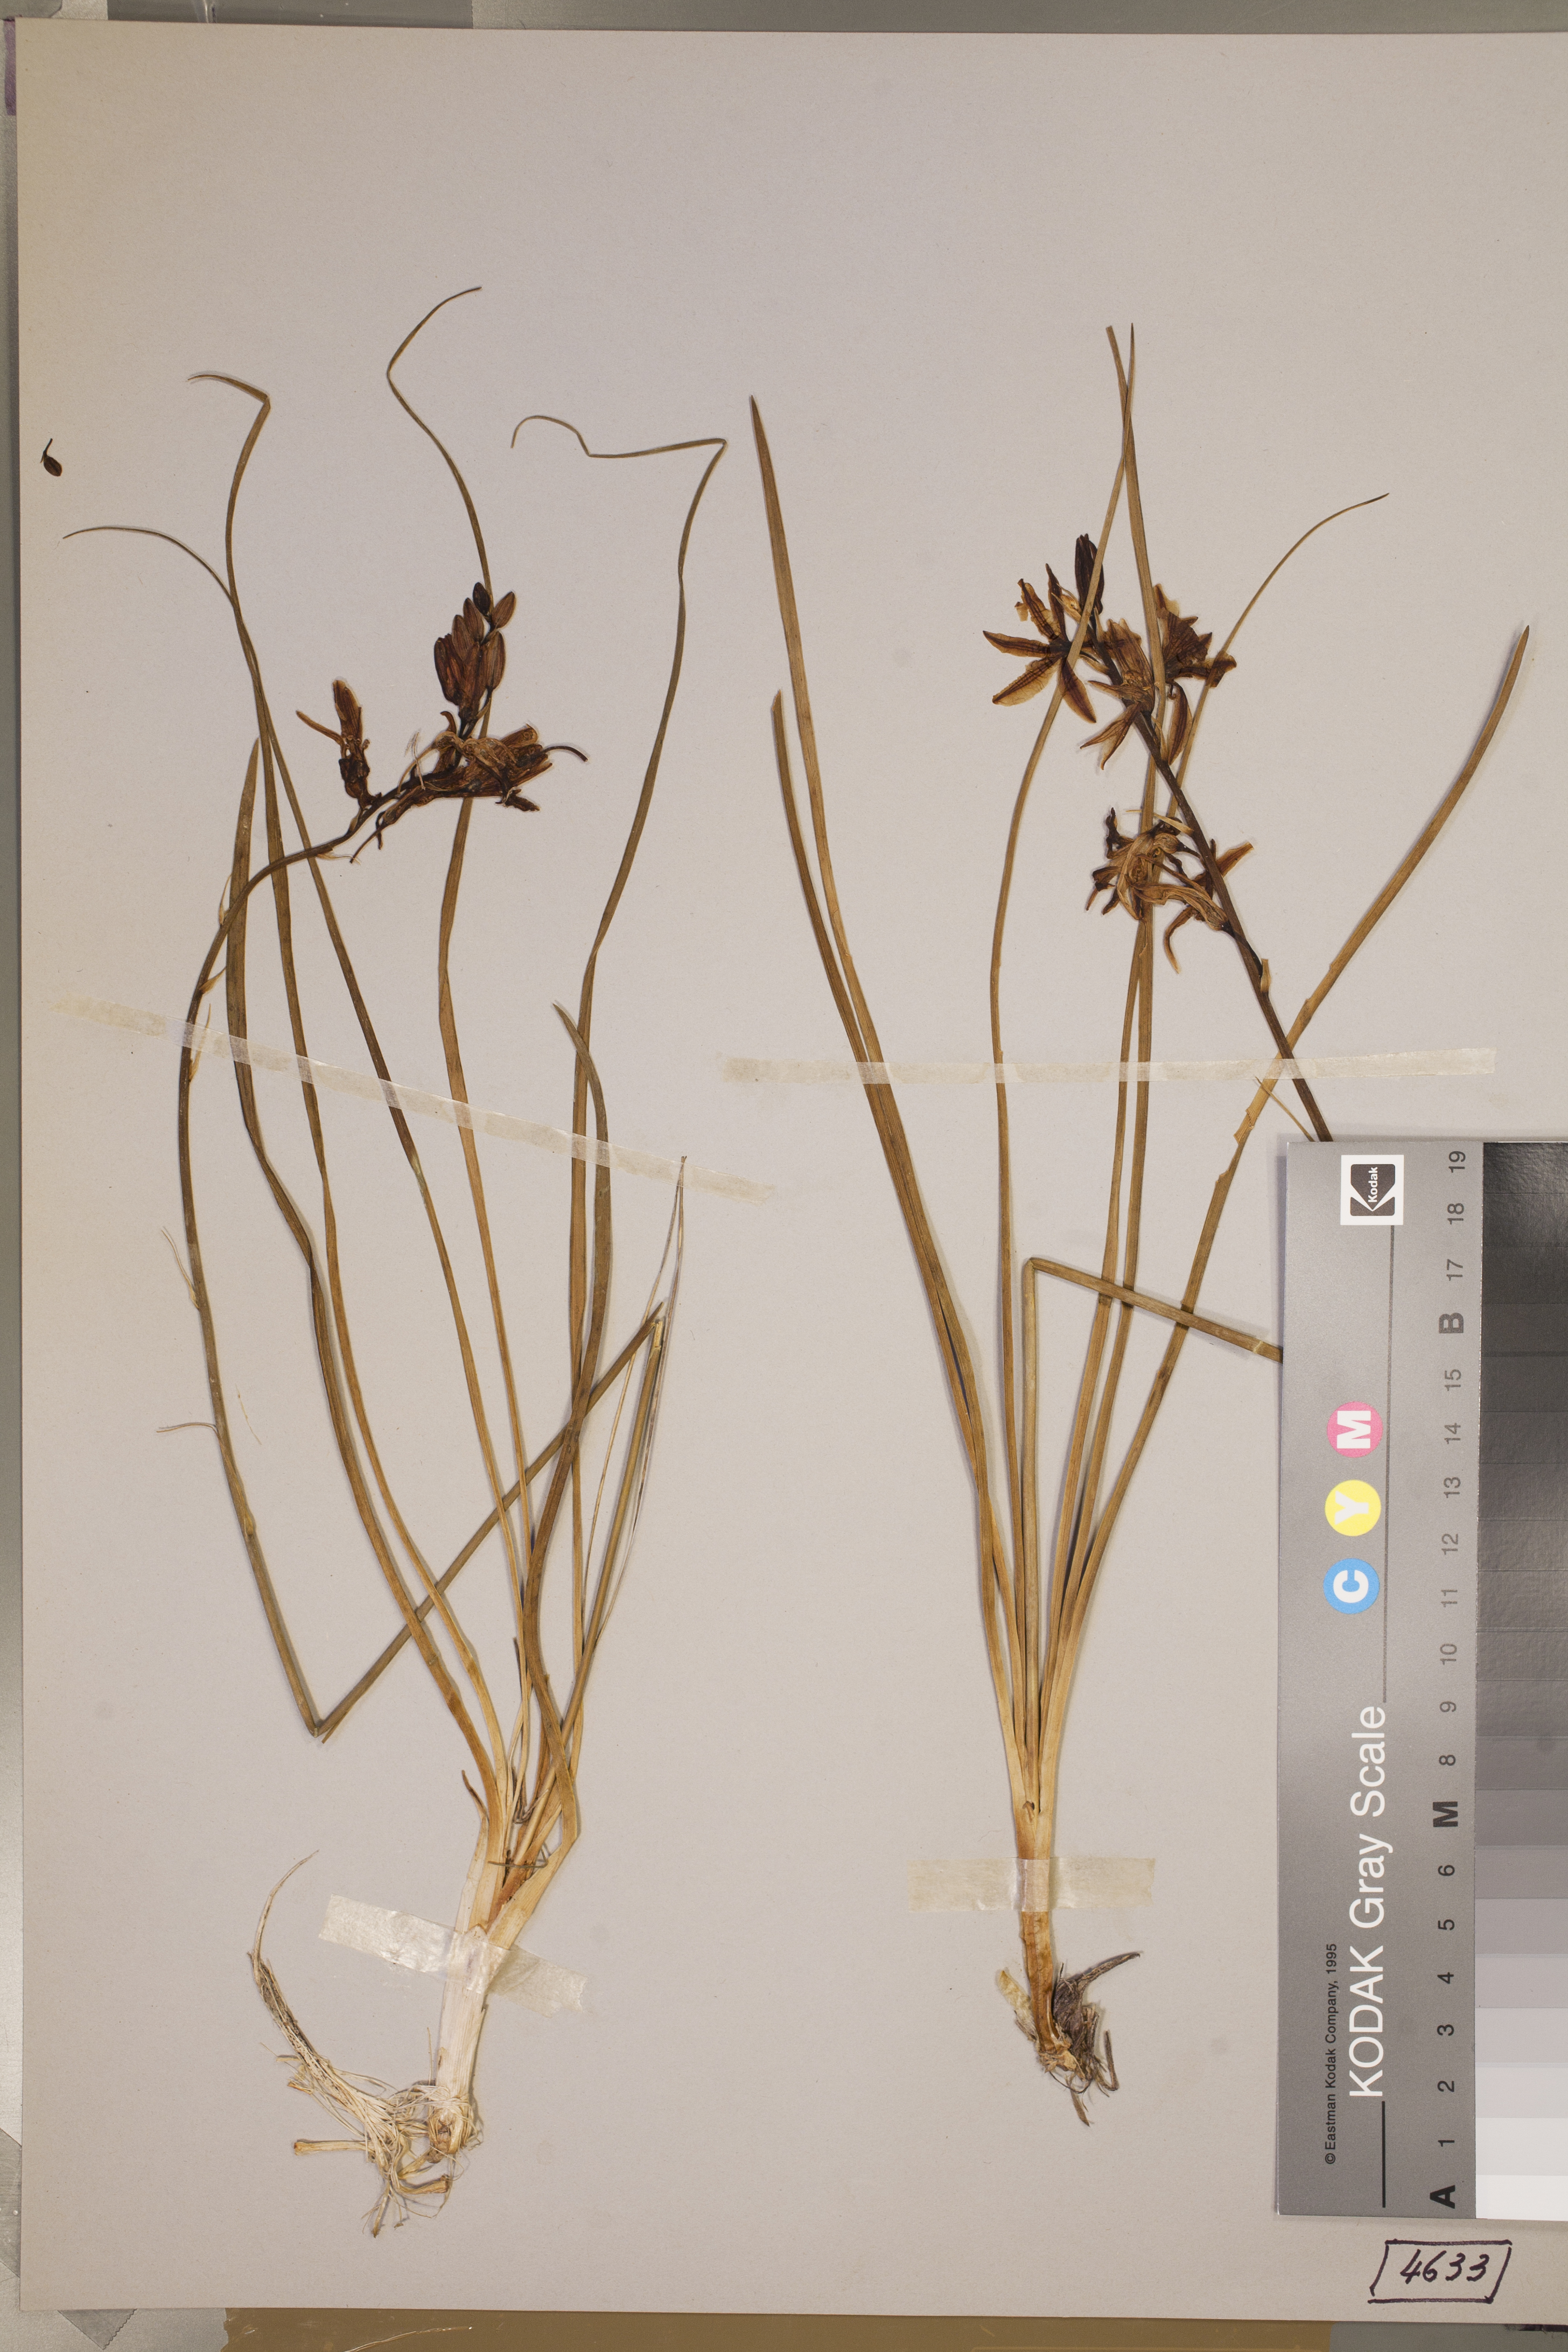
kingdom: Plantae
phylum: Tracheophyta
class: Liliopsida
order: Asparagales
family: Asparagaceae
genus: Anthericum
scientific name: Anthericum liliago
